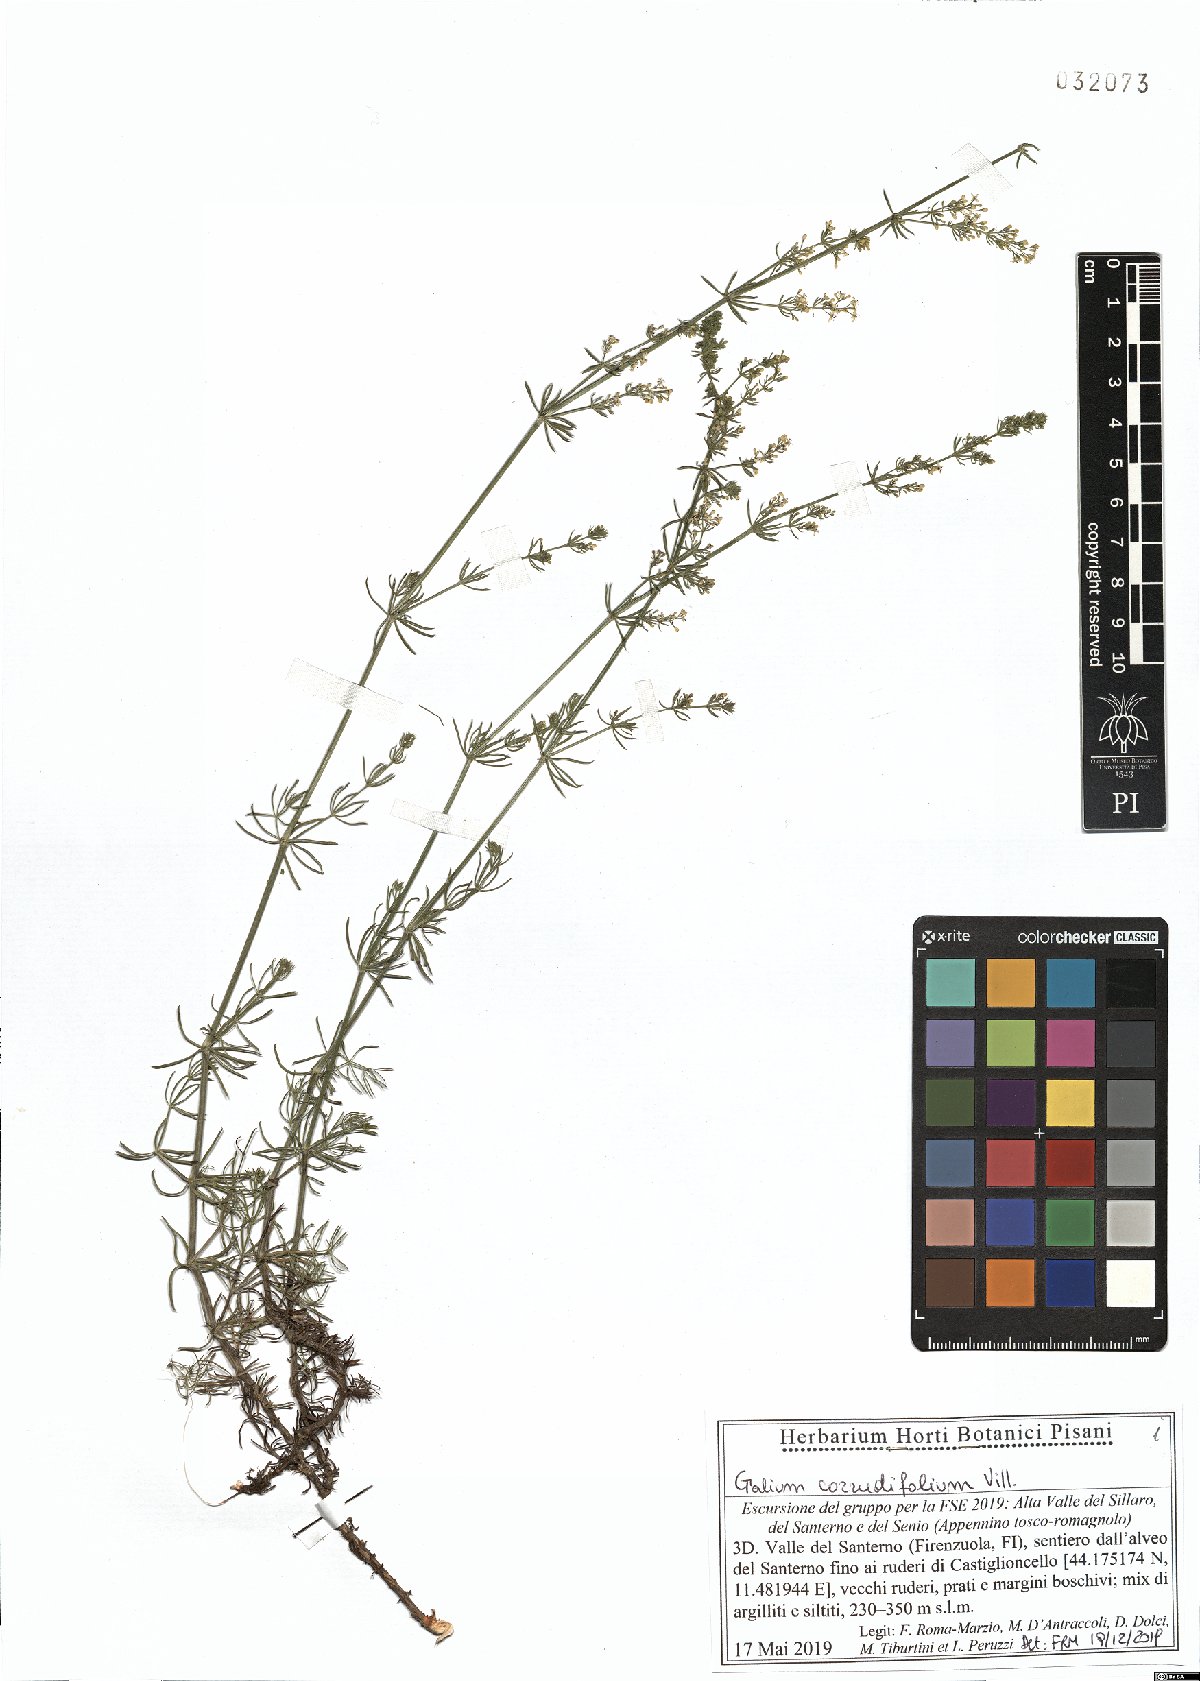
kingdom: Plantae
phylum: Tracheophyta
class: Magnoliopsida
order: Gentianales
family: Rubiaceae
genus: Galium
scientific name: Galium lucidum
